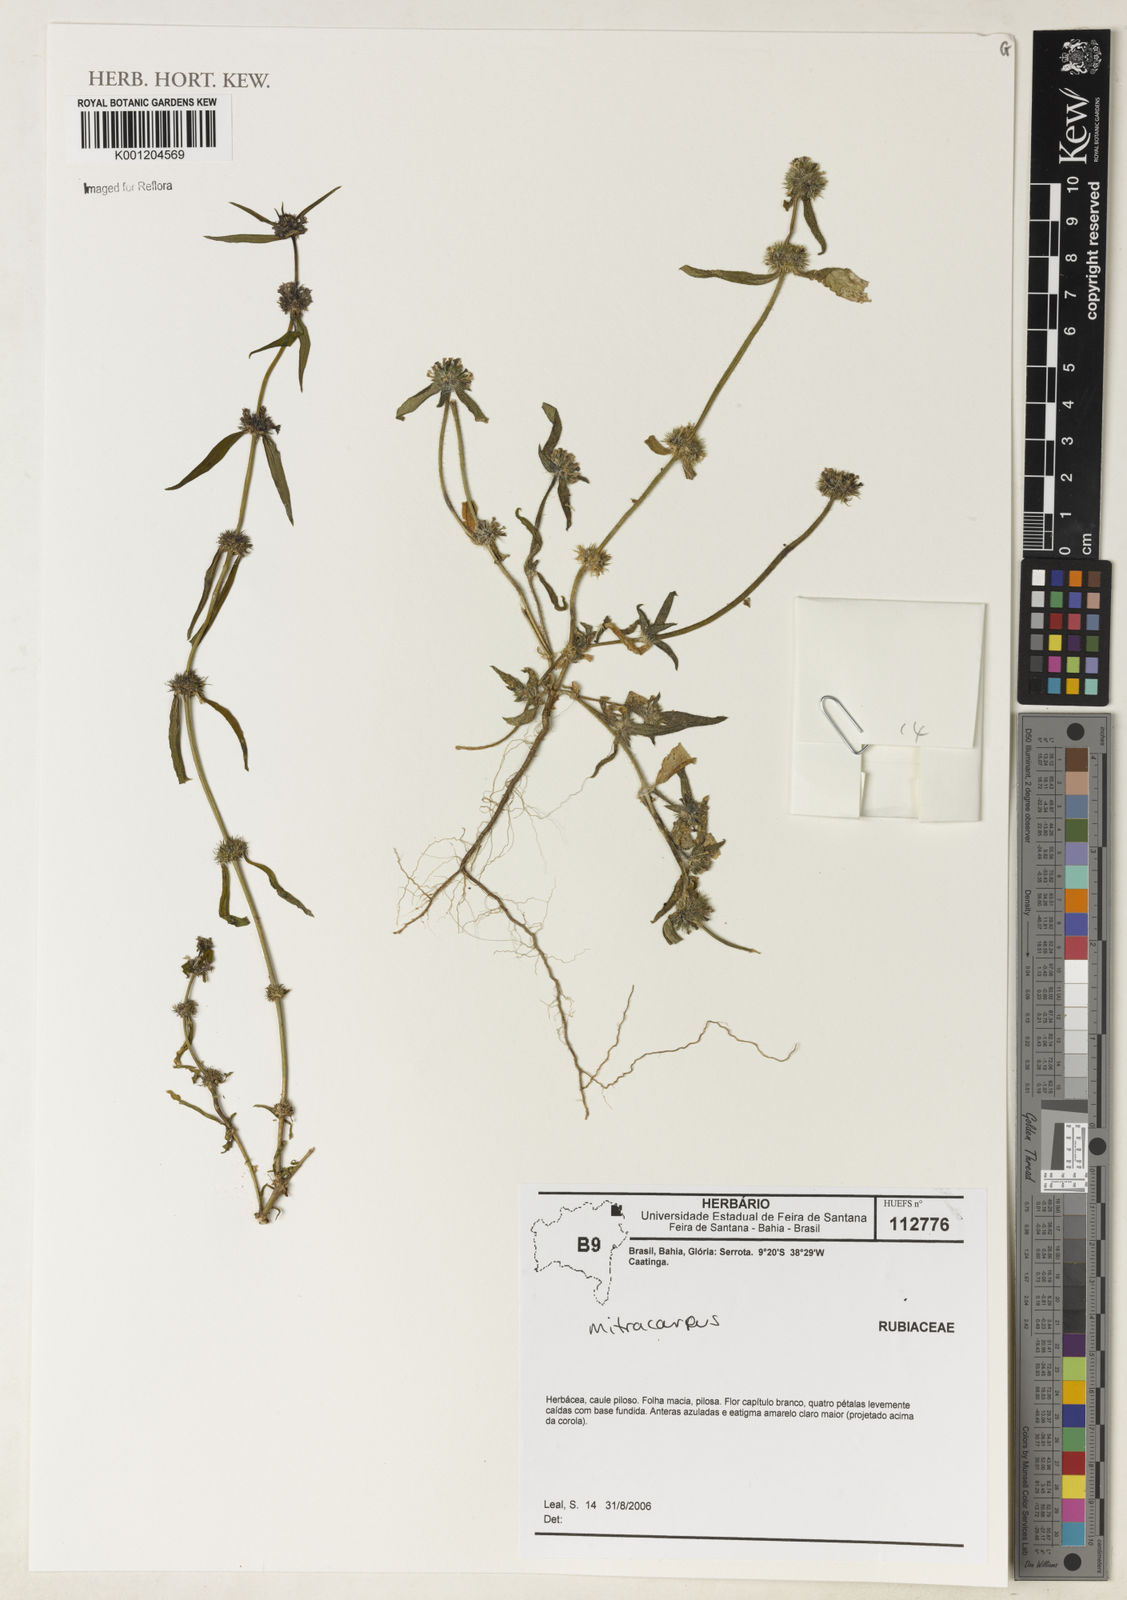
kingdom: Plantae
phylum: Tracheophyta
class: Magnoliopsida
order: Gentianales
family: Rubiaceae
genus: Mitracarpus
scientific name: Mitracarpus
